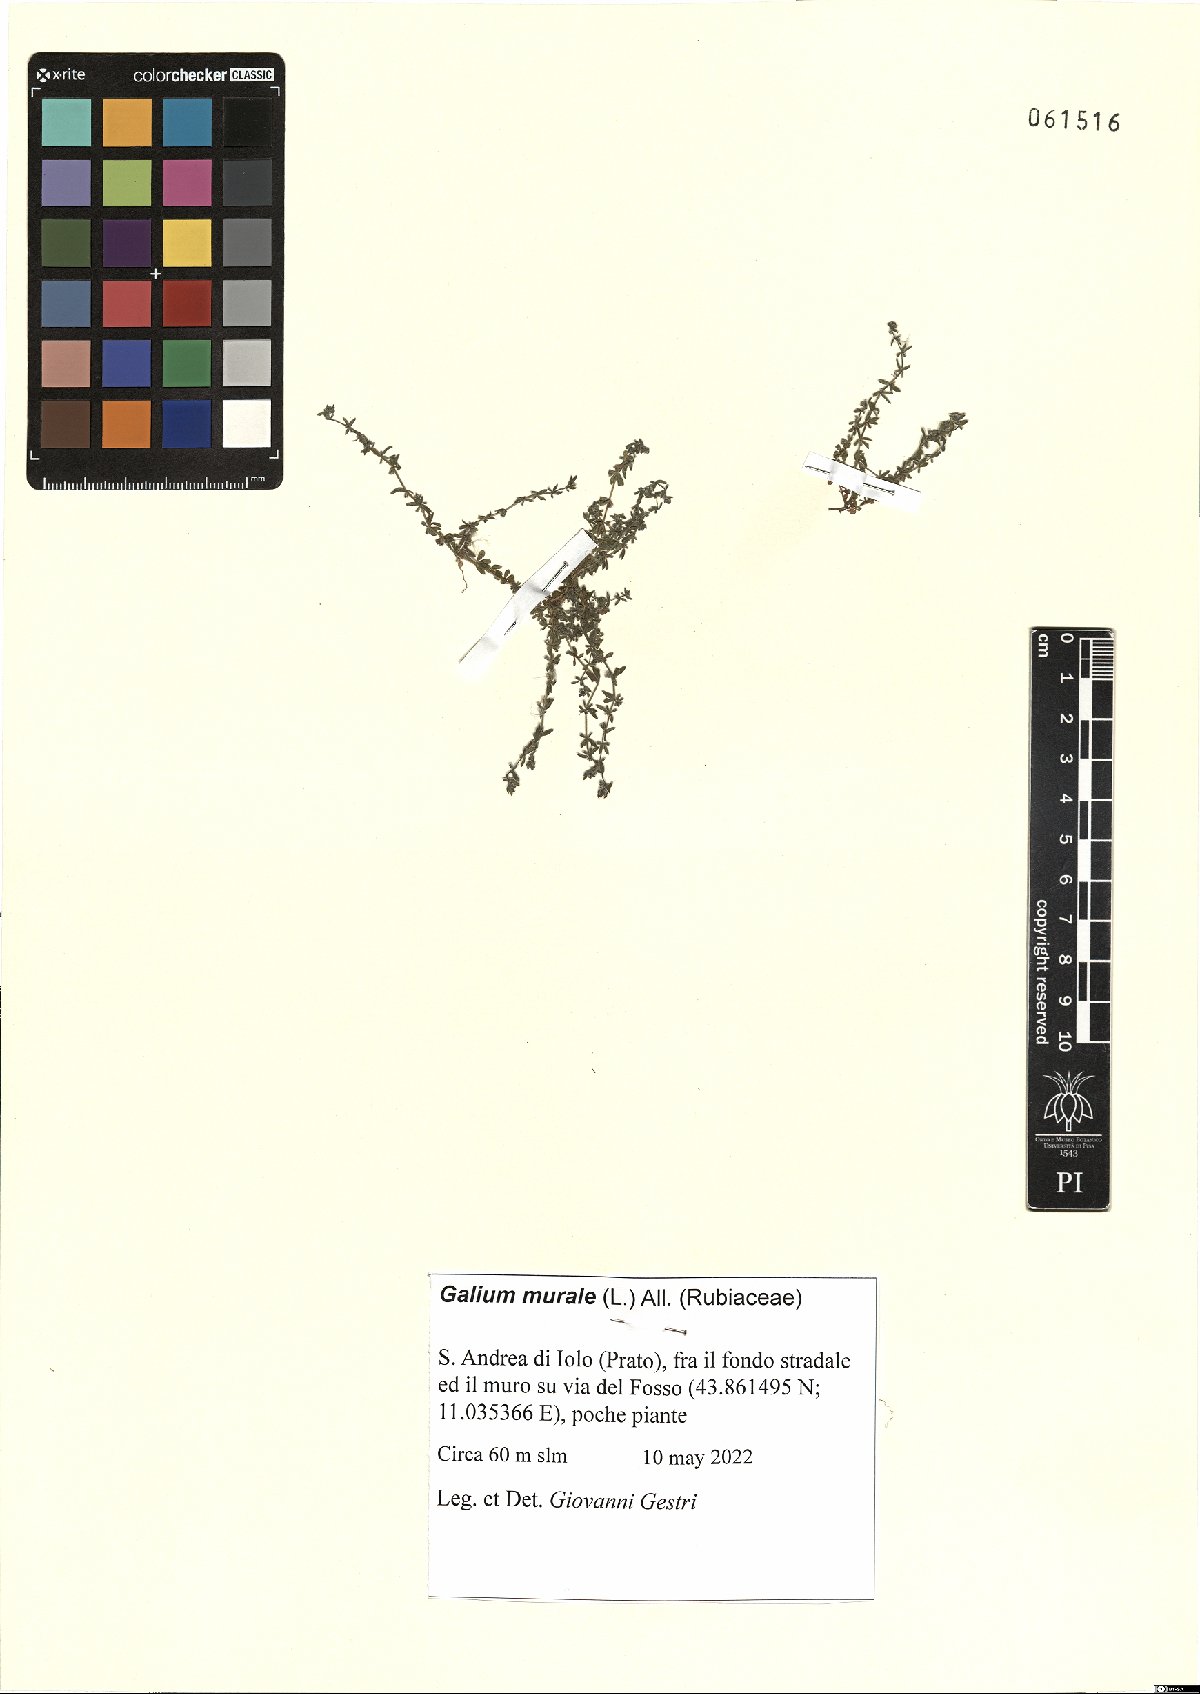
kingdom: Plantae
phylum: Tracheophyta
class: Magnoliopsida
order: Gentianales
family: Rubiaceae
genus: Galium
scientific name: Galium murale
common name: Yellow wall bedstraw
